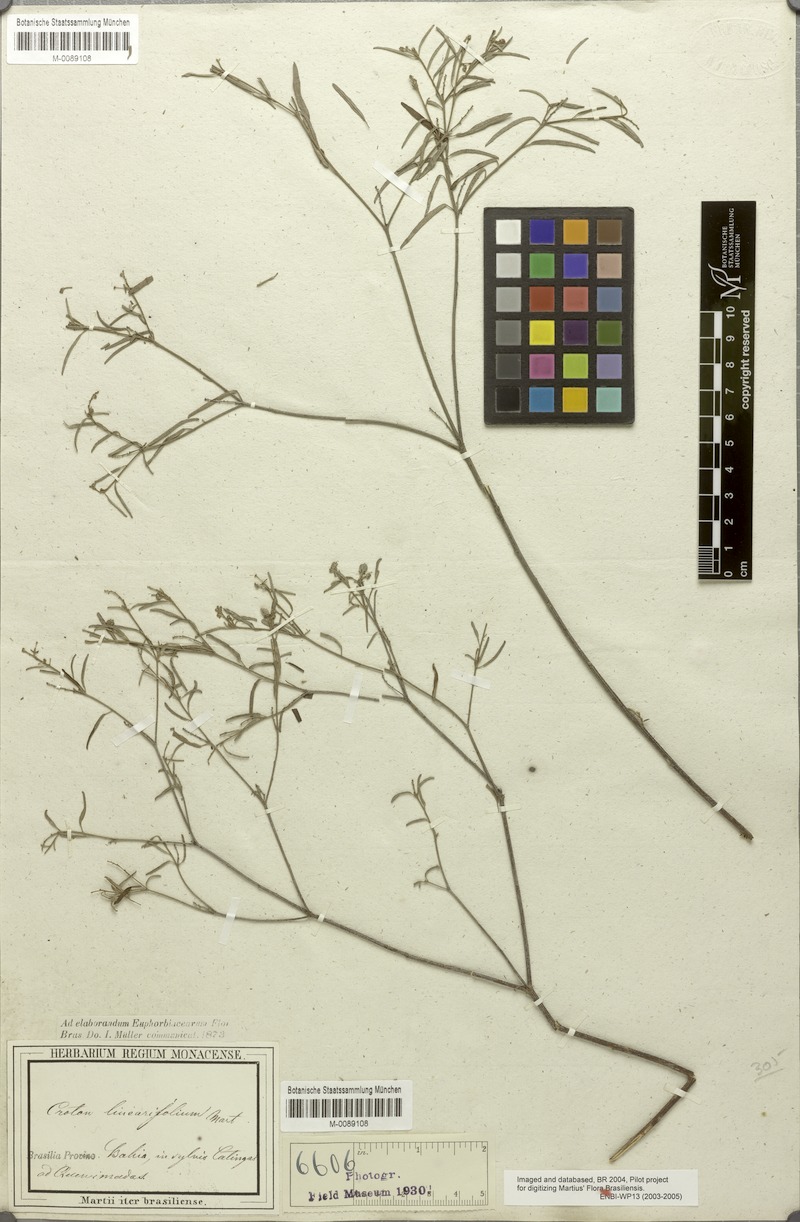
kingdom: Plantae
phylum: Tracheophyta
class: Magnoliopsida
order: Malpighiales
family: Euphorbiaceae
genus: Croton
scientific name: Croton linearifolius
